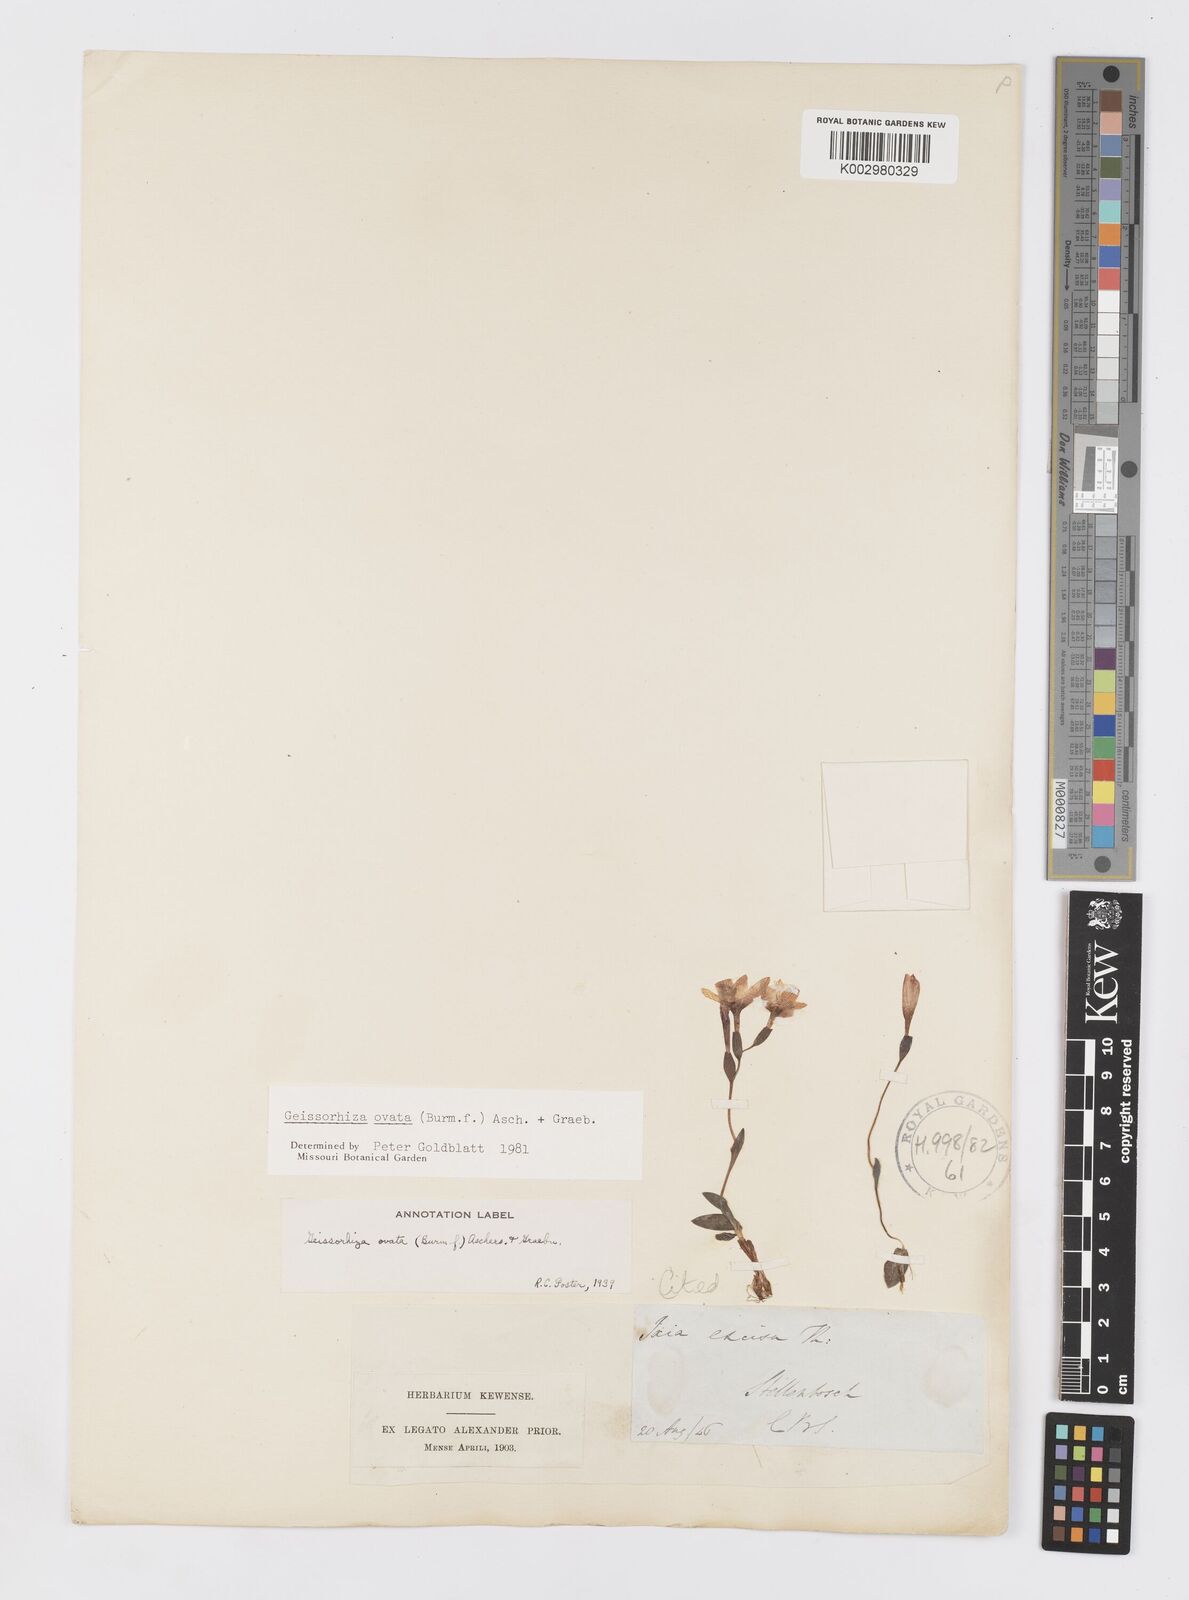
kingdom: Plantae
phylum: Tracheophyta
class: Liliopsida
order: Asparagales
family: Iridaceae
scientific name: Iridaceae
